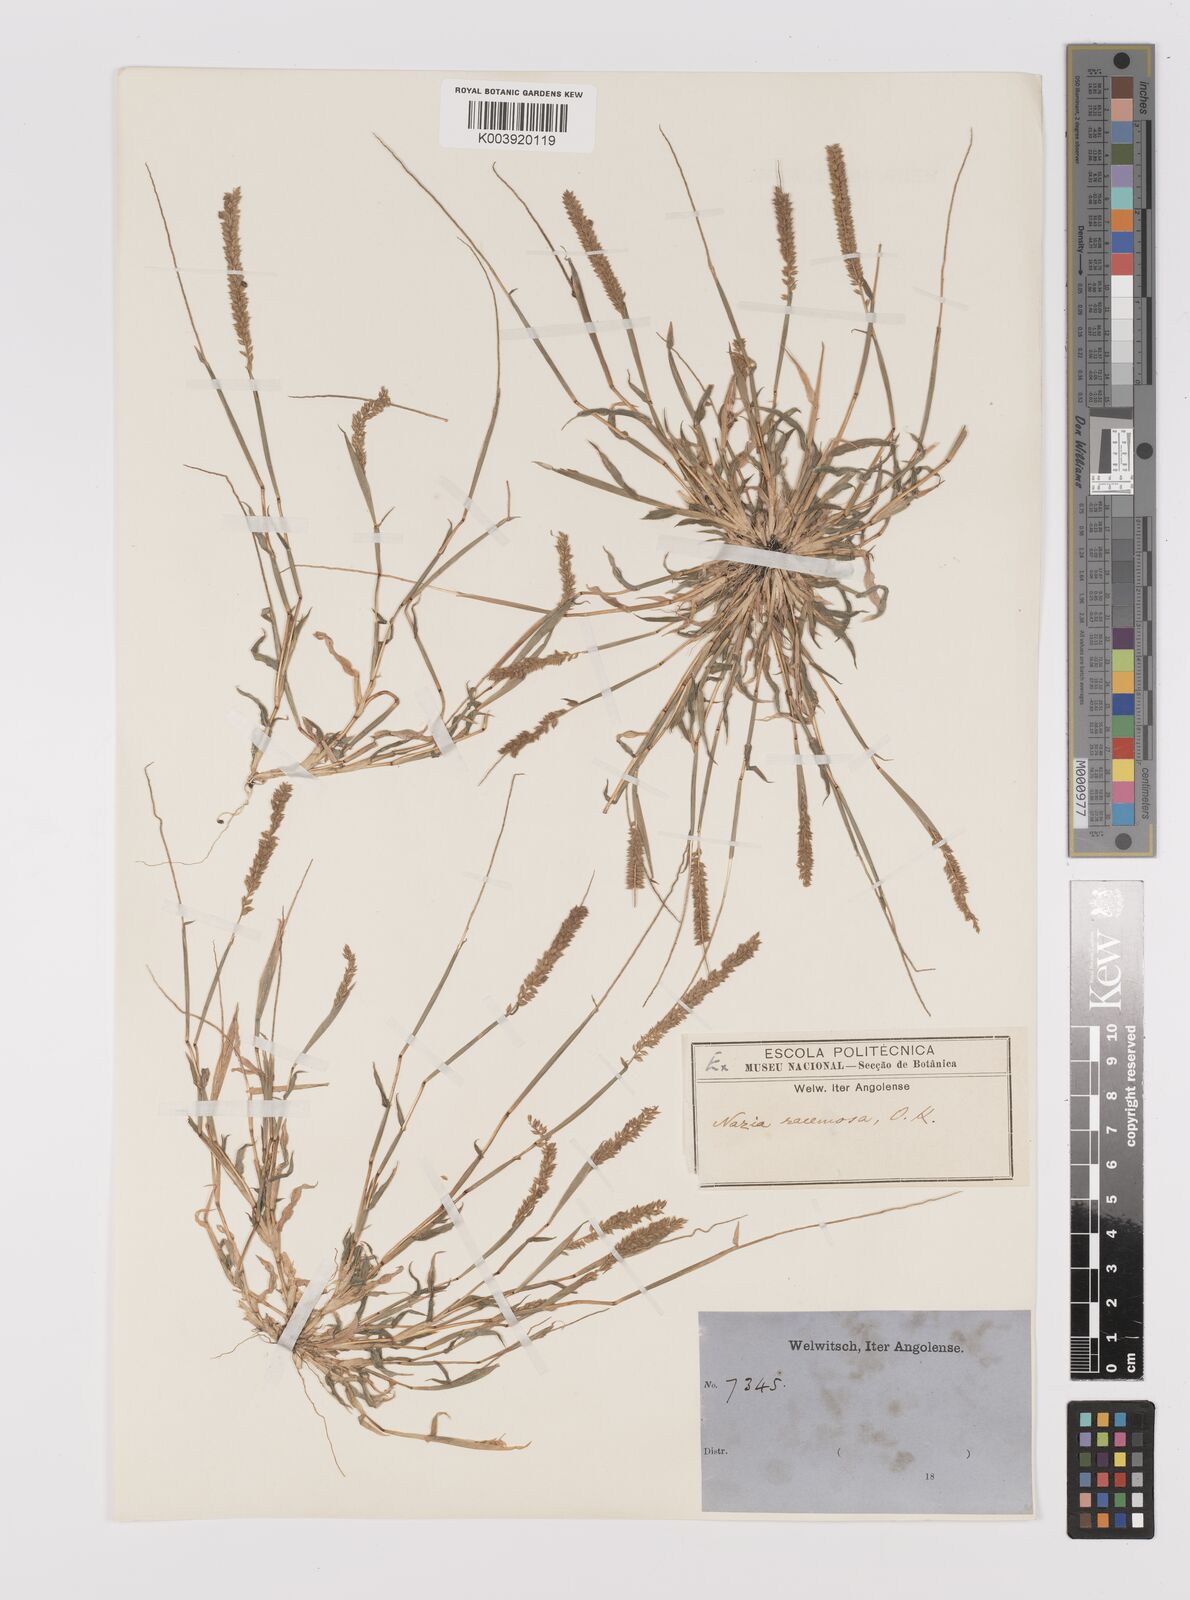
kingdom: Plantae
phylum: Tracheophyta
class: Liliopsida
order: Poales
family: Poaceae
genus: Tragus
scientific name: Tragus berteronianus
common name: African bur-grass
